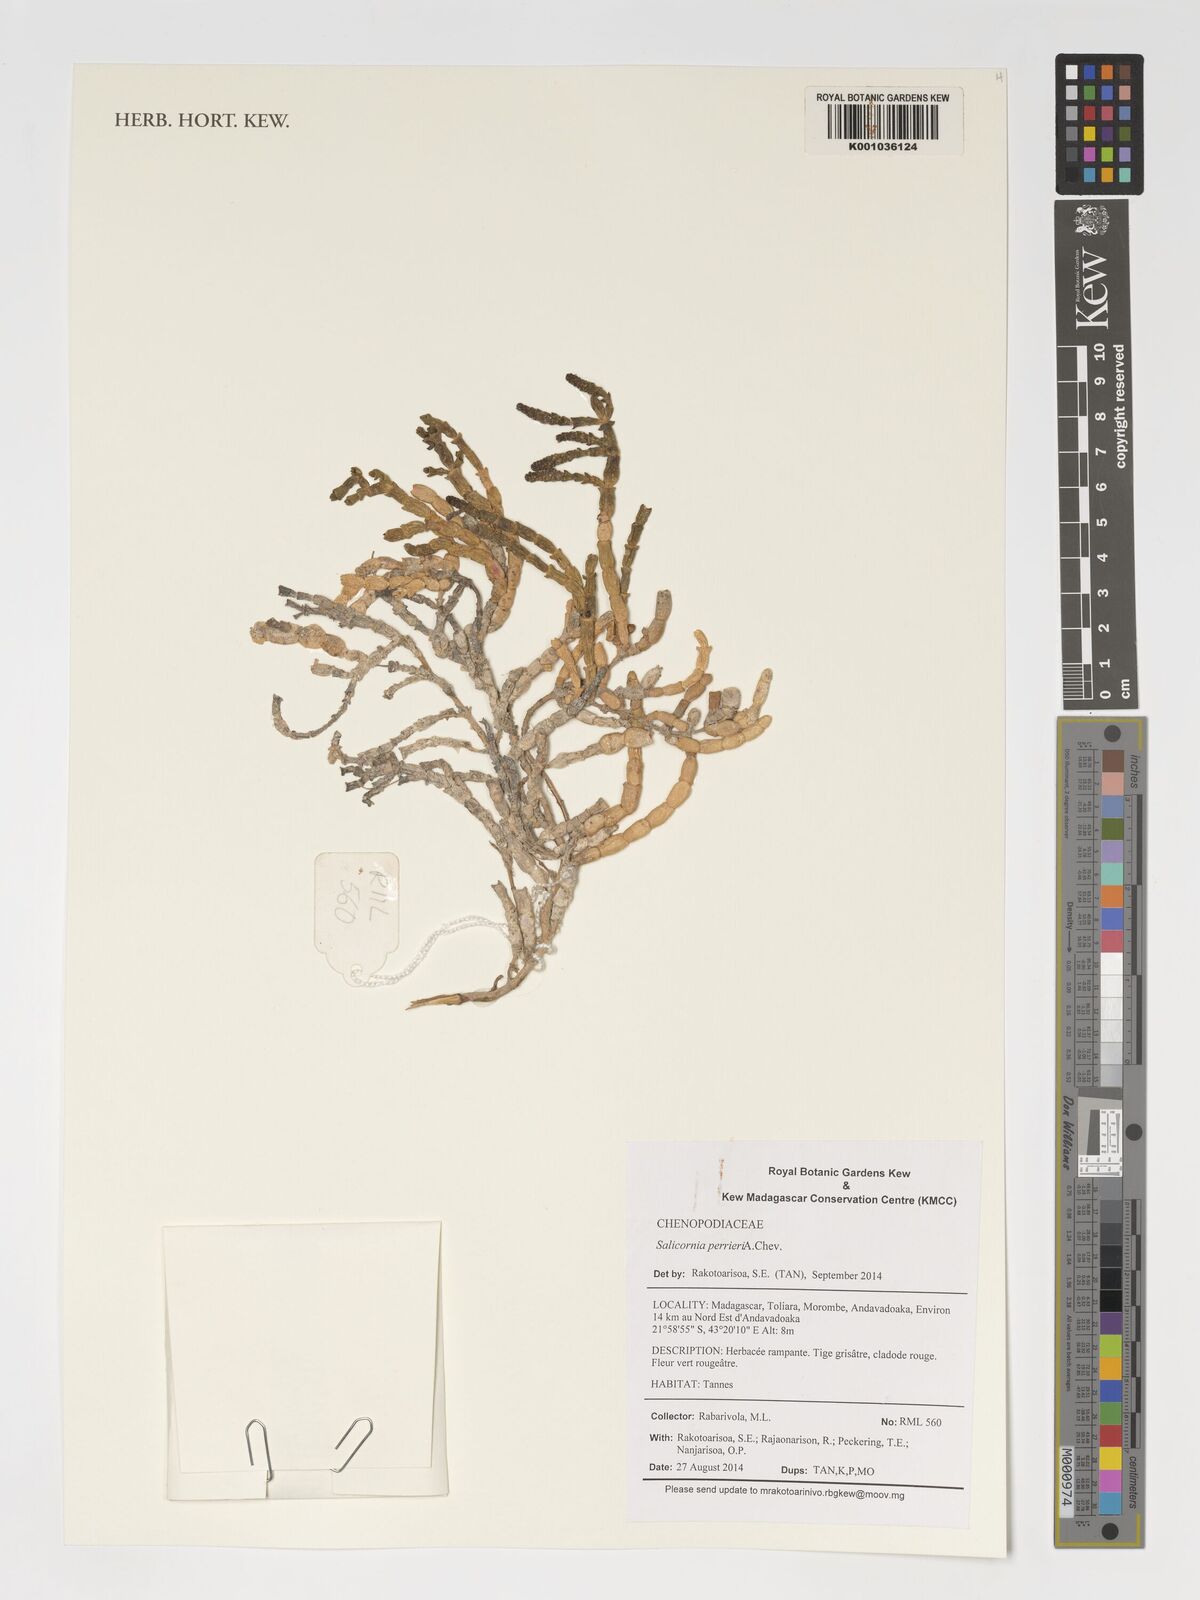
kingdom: Plantae
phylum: Tracheophyta
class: Magnoliopsida
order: Caryophyllales
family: Amaranthaceae
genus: Salicornia
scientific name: Salicornia perrieri
